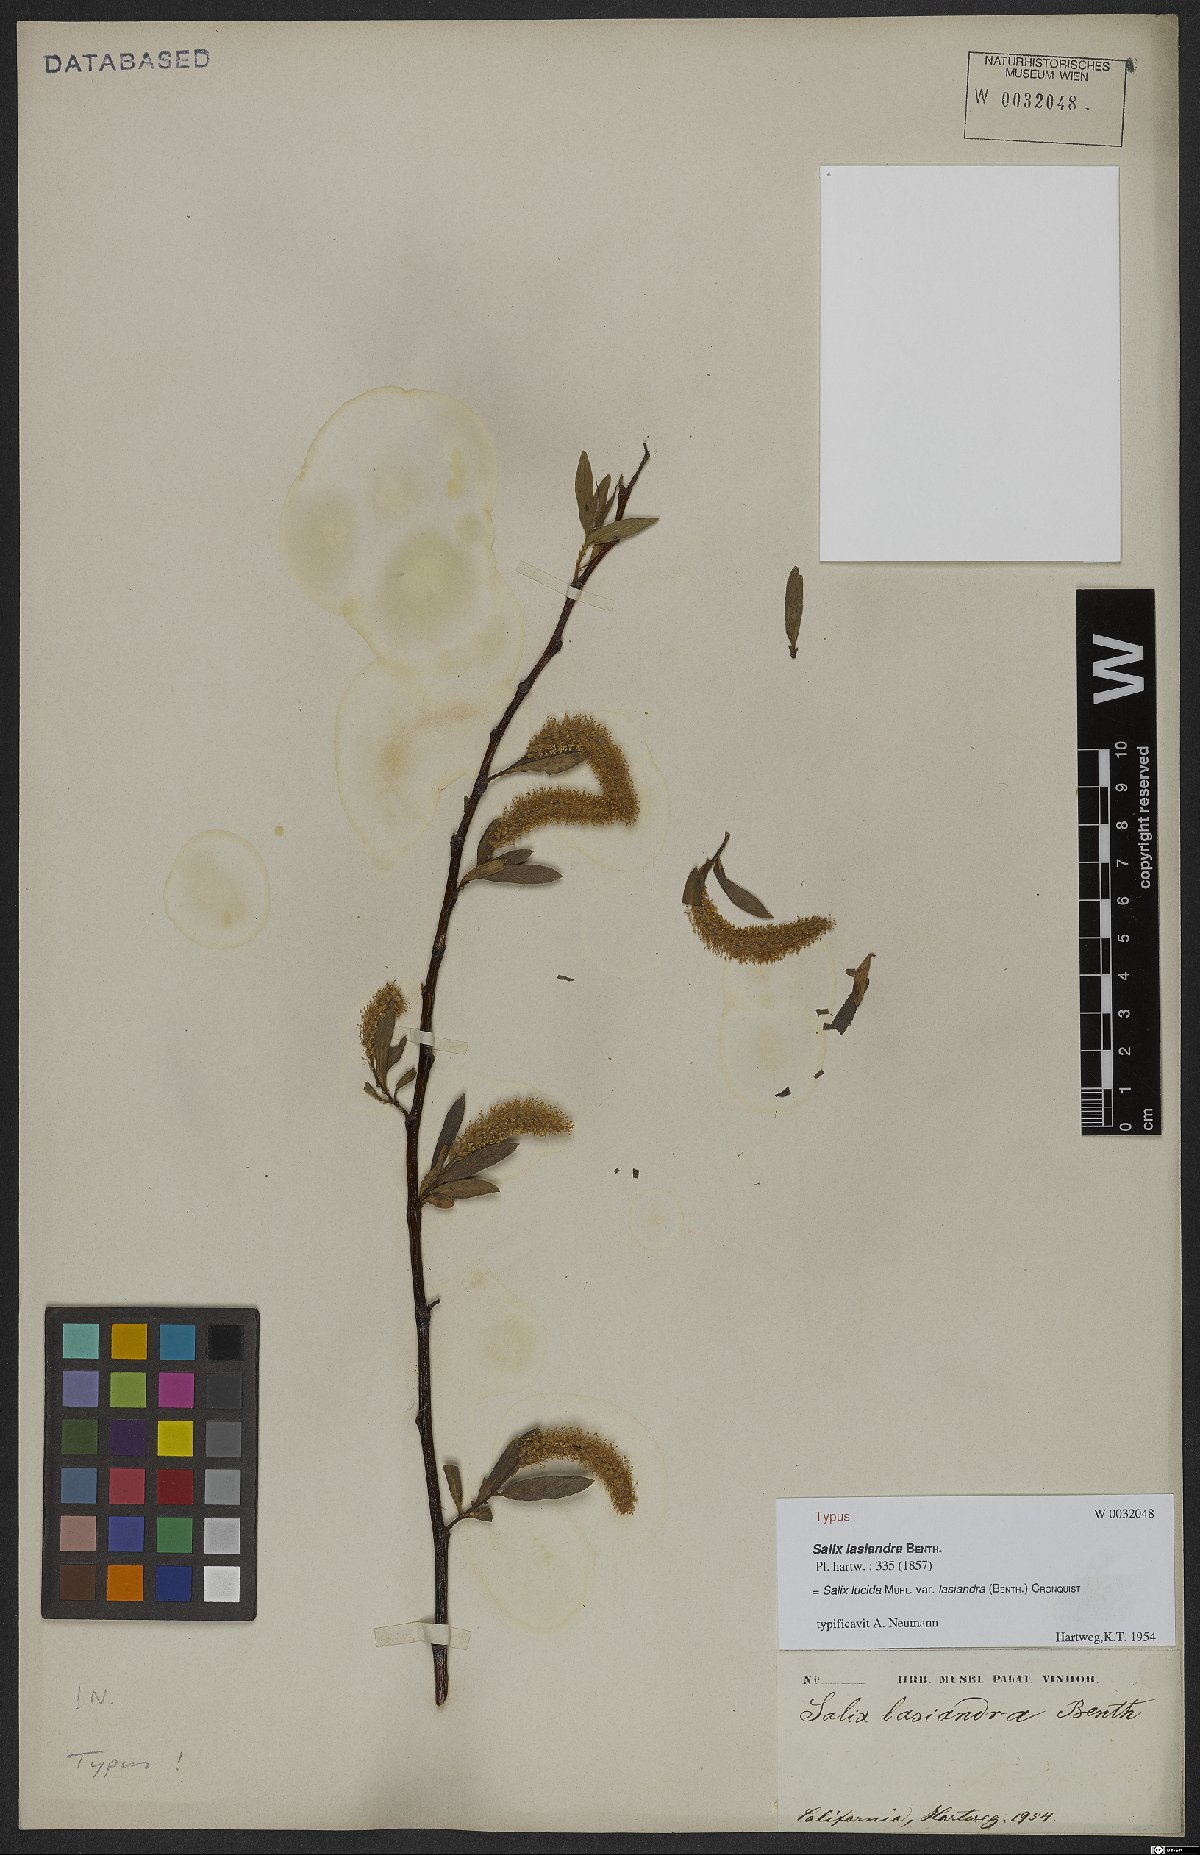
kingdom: Plantae
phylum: Tracheophyta
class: Magnoliopsida
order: Malpighiales
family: Salicaceae
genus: Salix
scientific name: Salix lucida
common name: Shining willow
